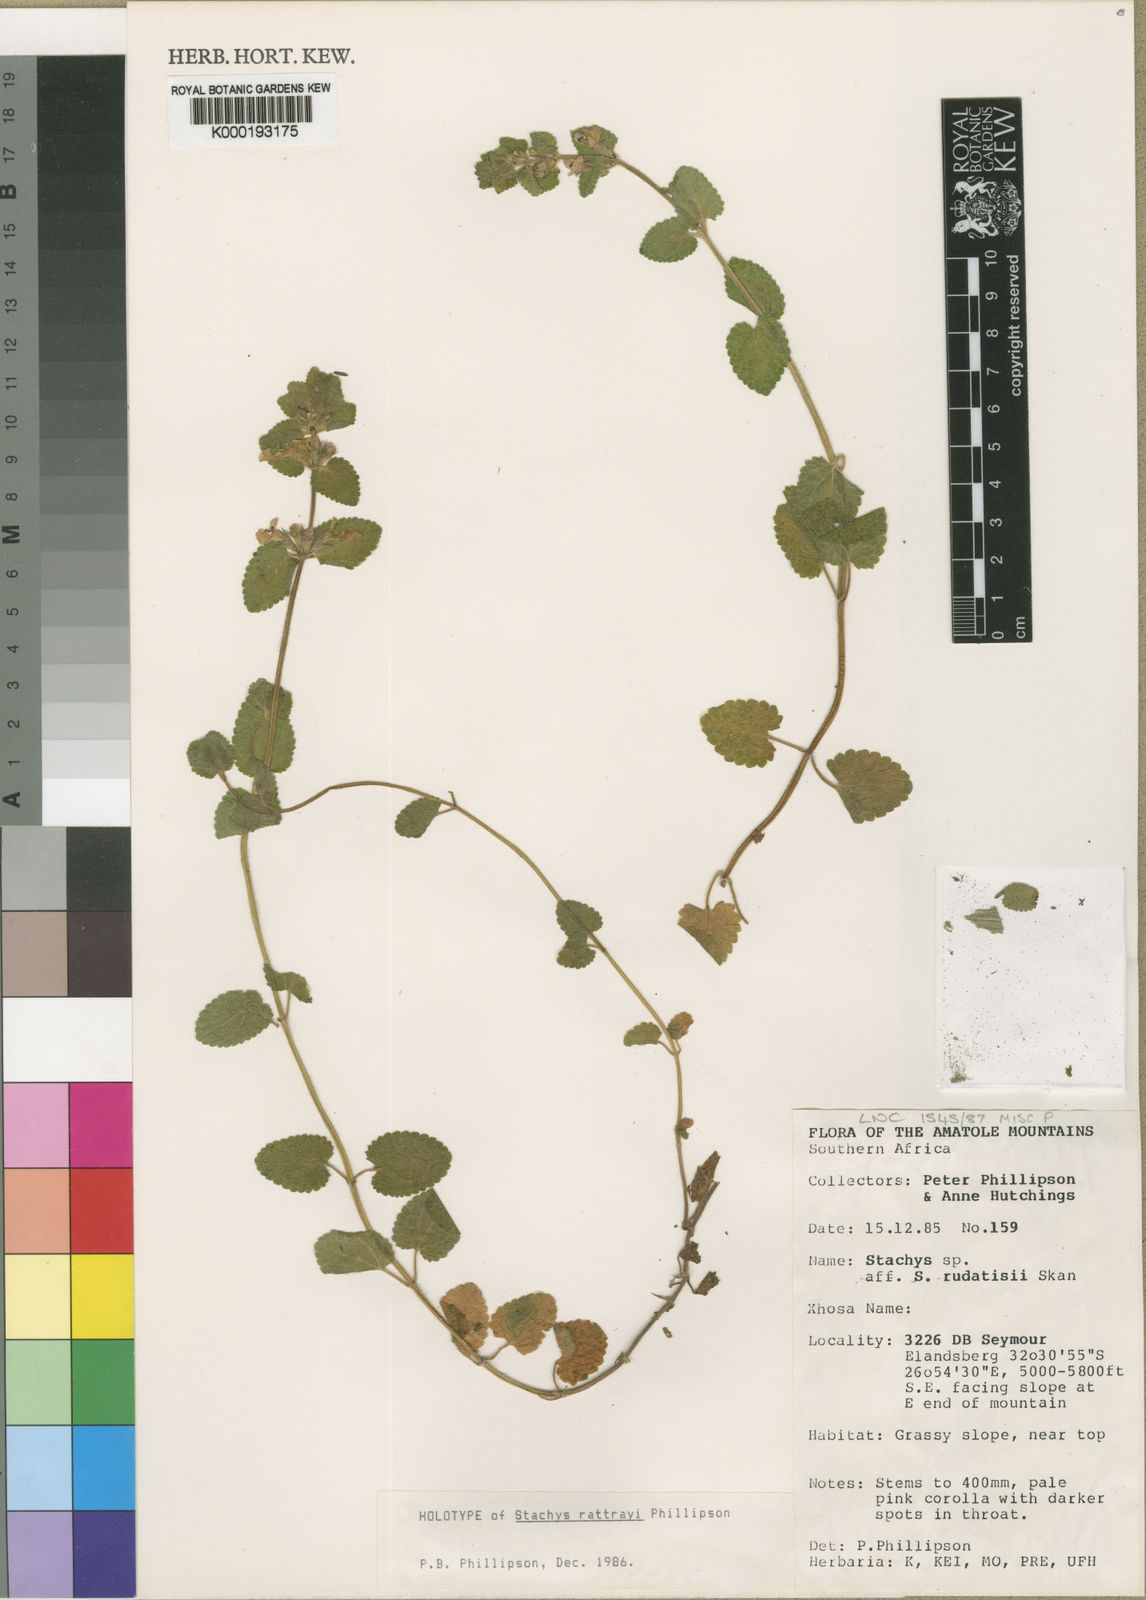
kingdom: Plantae
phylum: Tracheophyta
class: Magnoliopsida
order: Lamiales
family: Lamiaceae
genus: Stachys
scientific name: Stachys
